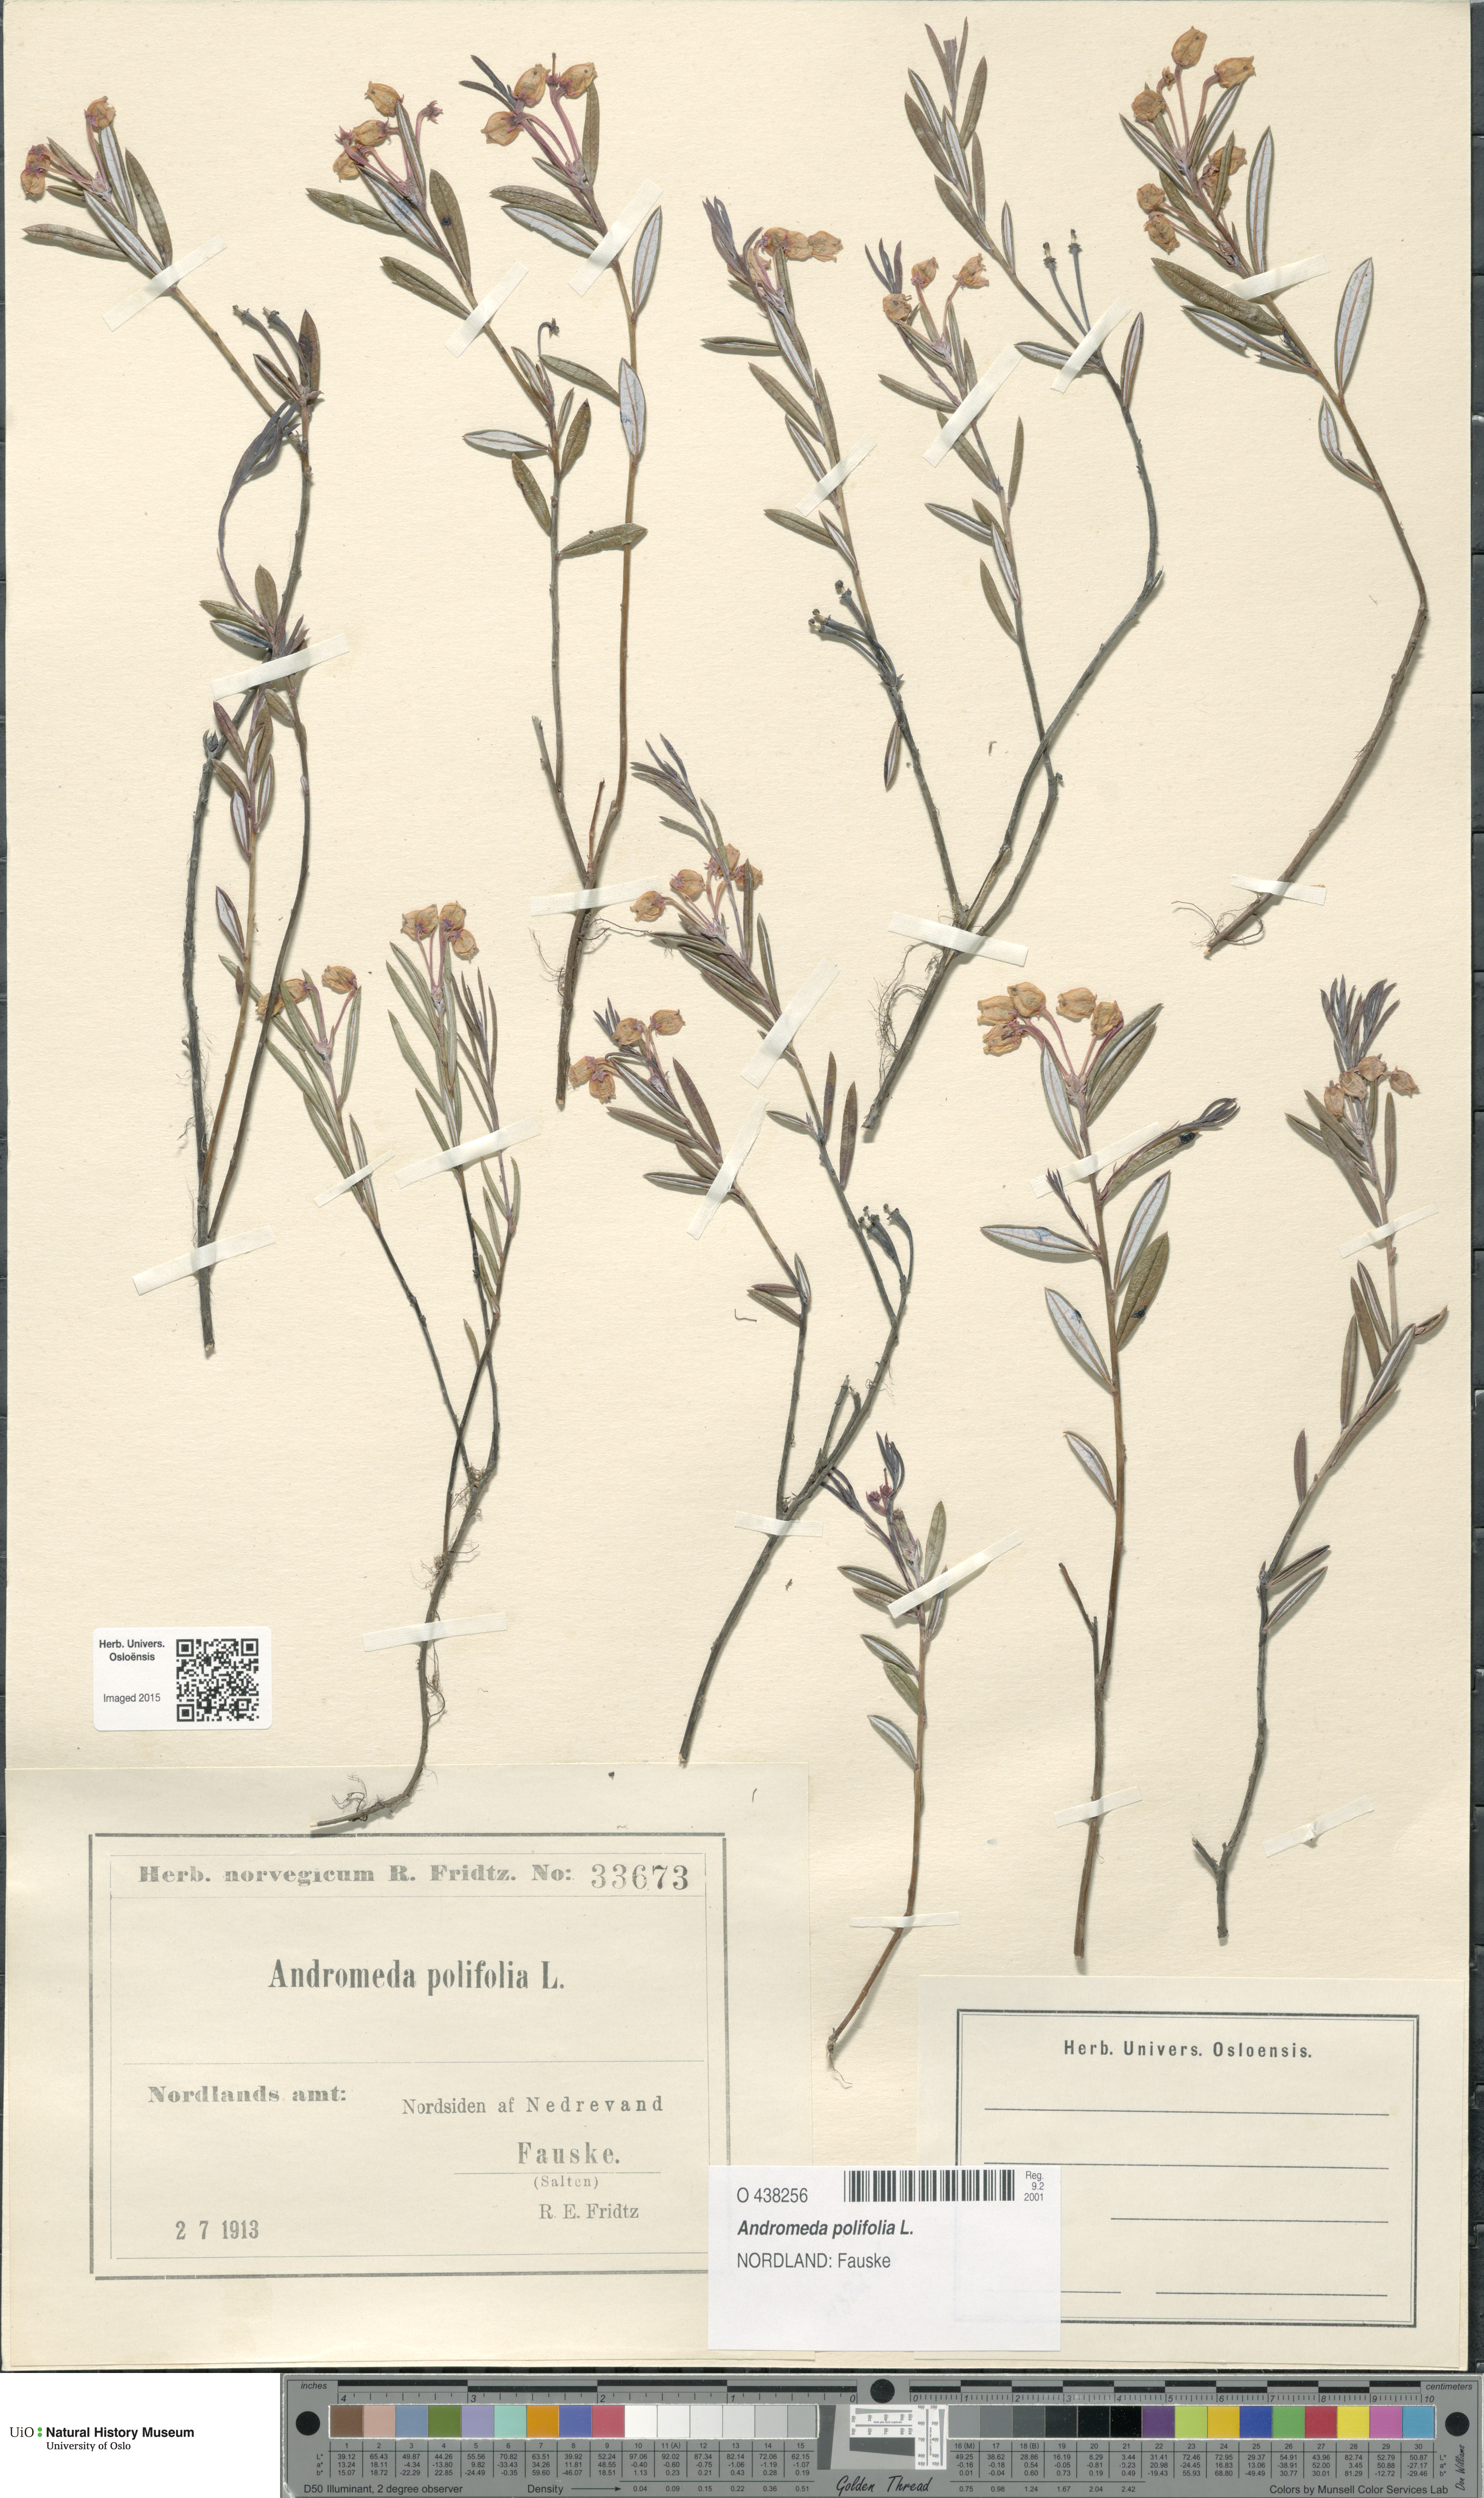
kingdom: Plantae
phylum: Tracheophyta
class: Magnoliopsida
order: Ericales
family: Ericaceae
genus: Andromeda
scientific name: Andromeda polifolia
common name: Bog-rosemary
